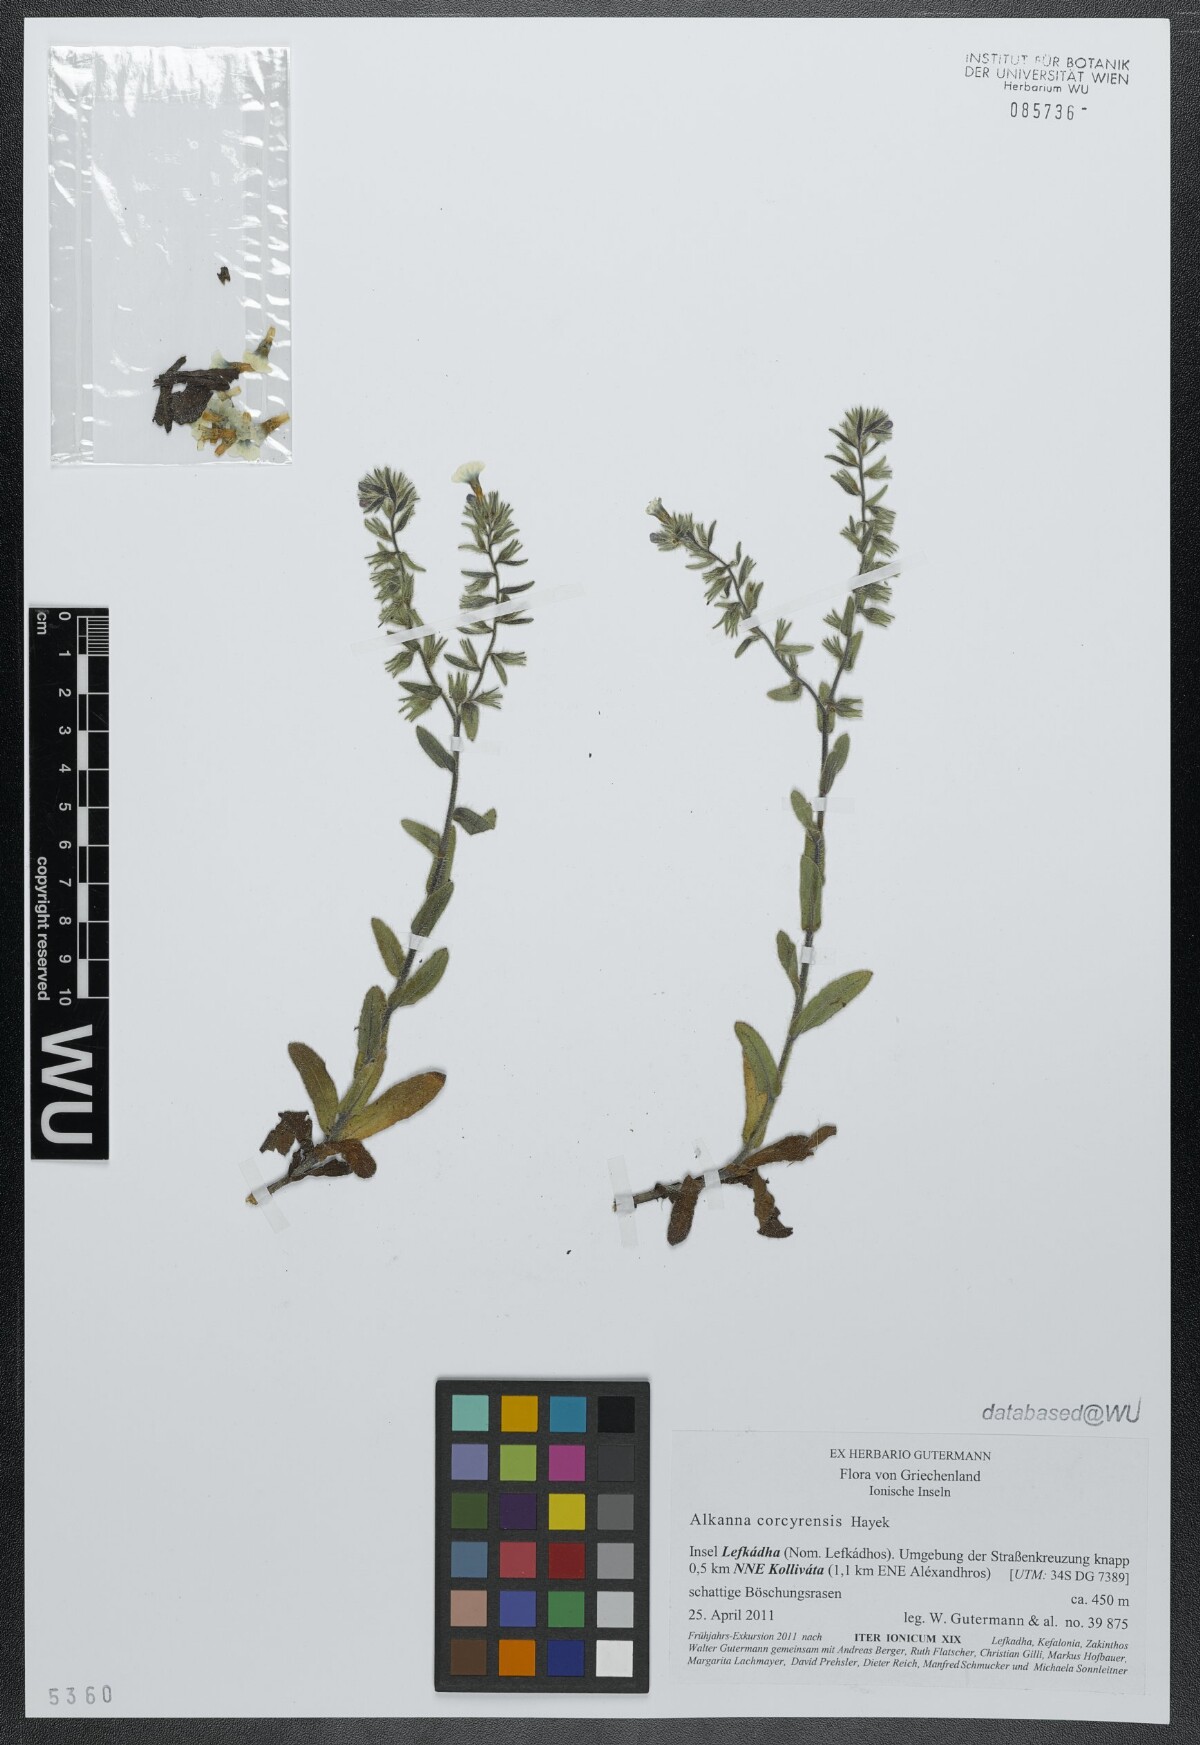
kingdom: Plantae
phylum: Tracheophyta
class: Magnoliopsida
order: Boraginales
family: Boraginaceae
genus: Alkanna
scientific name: Alkanna corcyrensis
